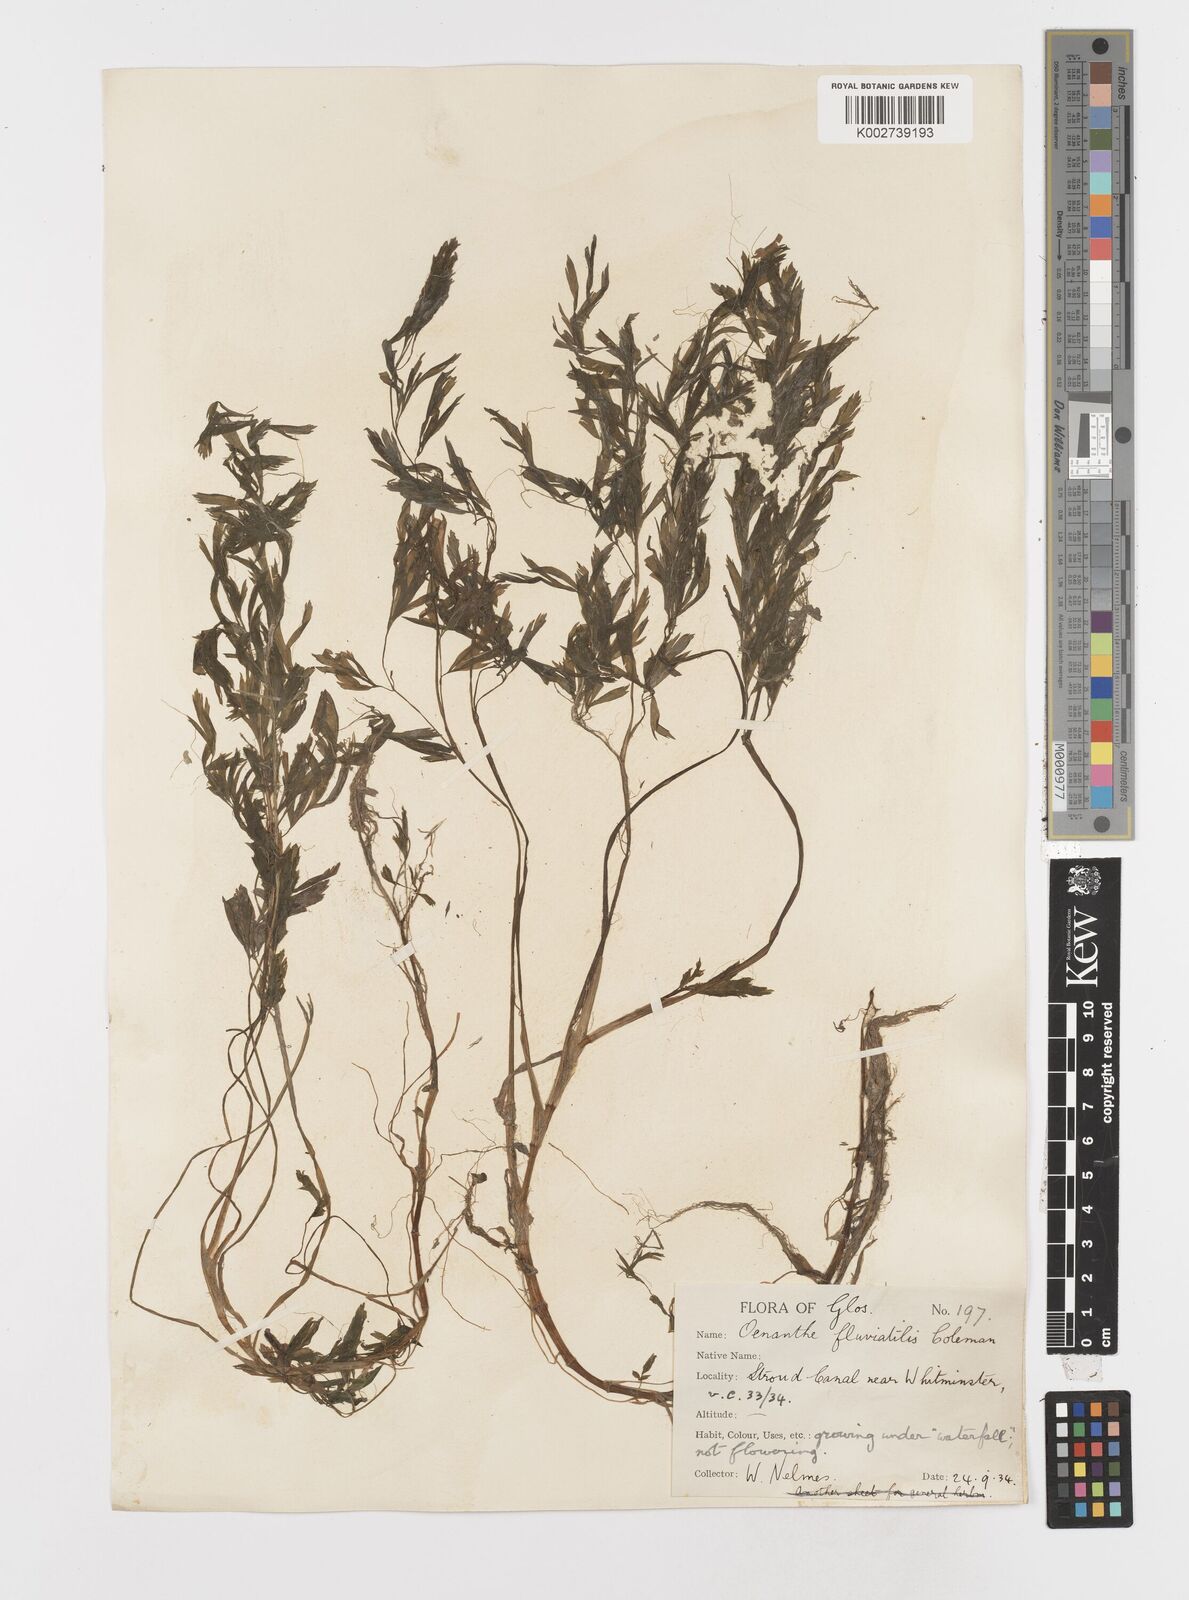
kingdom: Plantae
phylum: Tracheophyta
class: Magnoliopsida
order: Apiales
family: Apiaceae
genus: Oenanthe
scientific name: Oenanthe fluviatilis
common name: River water-dropwort
